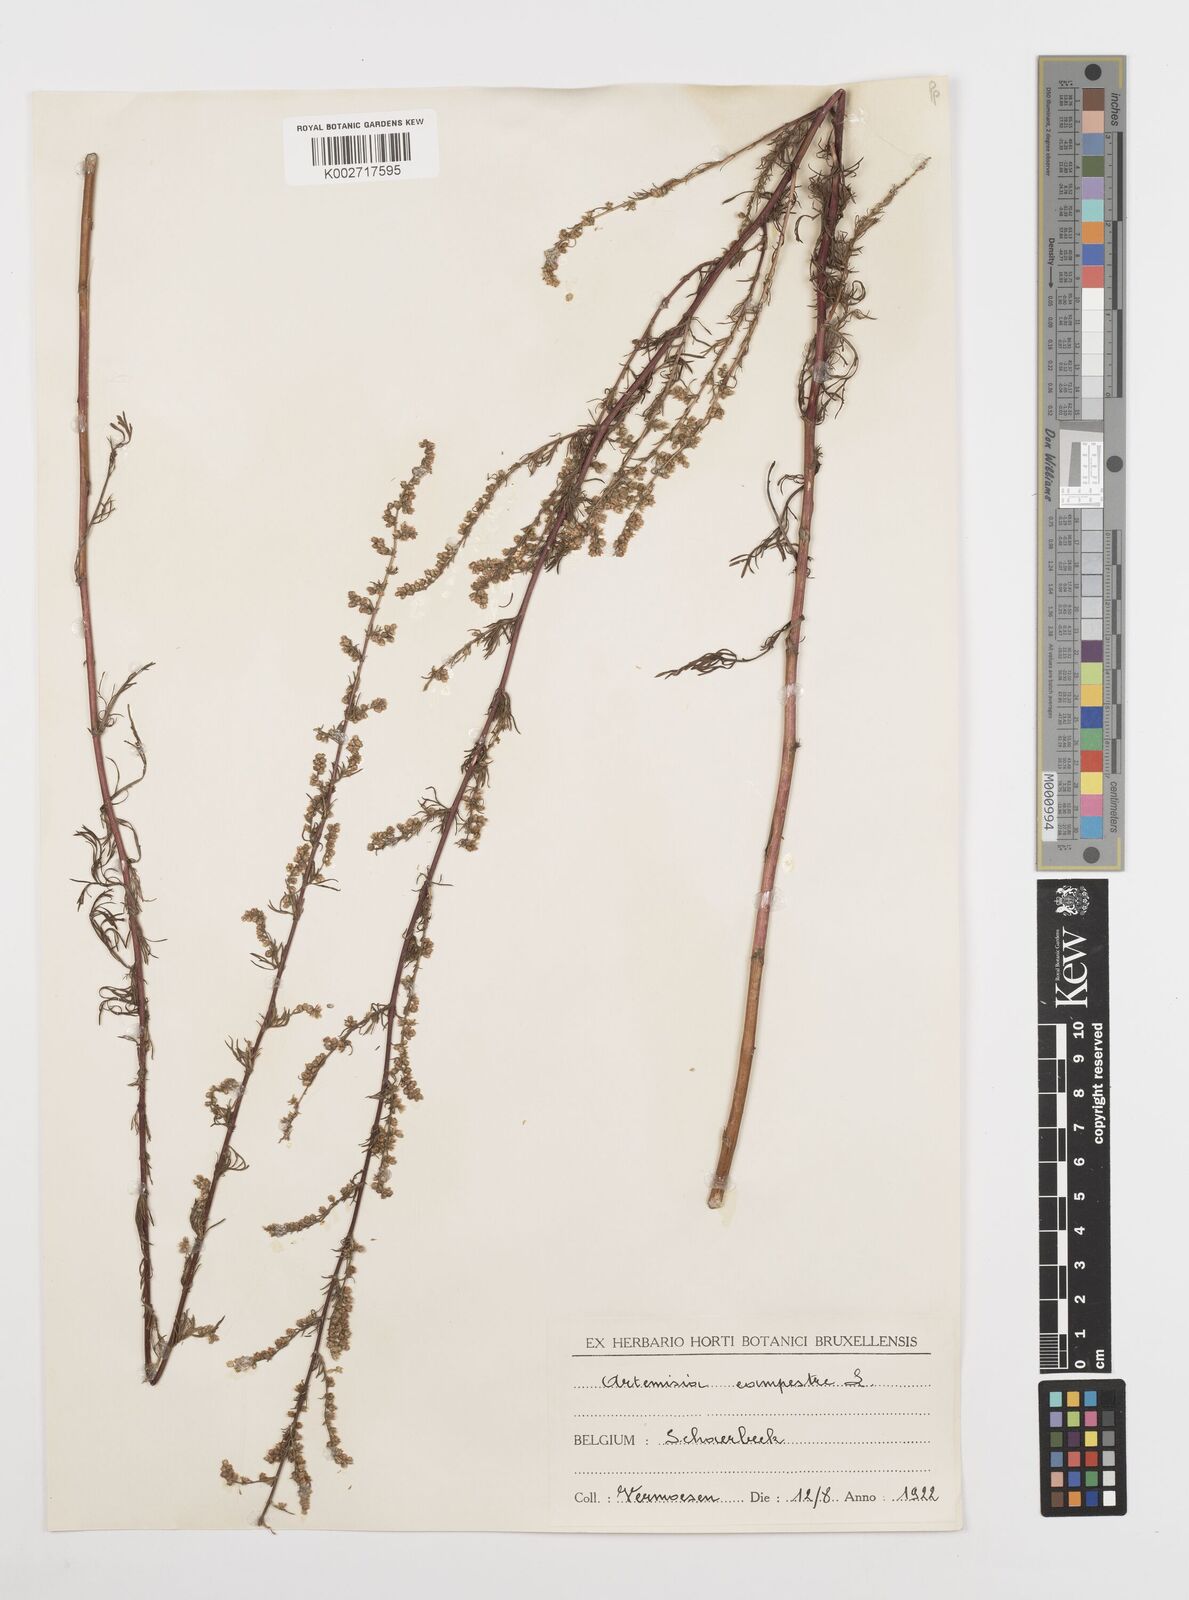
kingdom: Plantae
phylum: Tracheophyta
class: Magnoliopsida
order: Asterales
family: Asteraceae
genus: Artemisia
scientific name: Artemisia campestris
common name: Field wormwood
